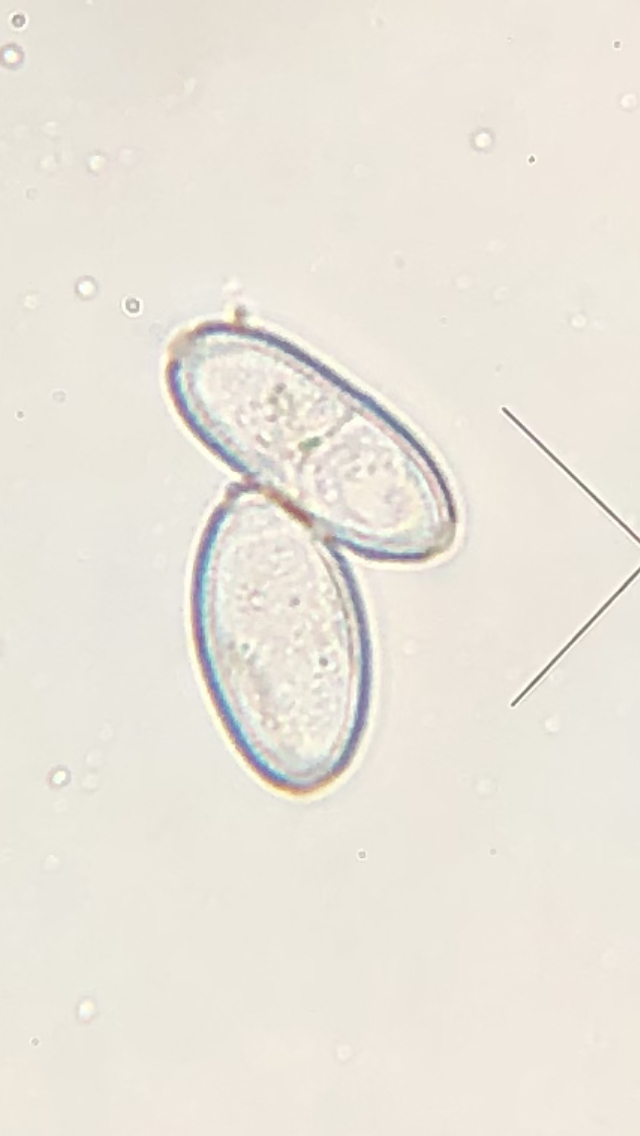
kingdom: Fungi
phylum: Ascomycota
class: Leotiomycetes
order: Helotiales
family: Erysiphaceae
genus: Blumeria
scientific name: Blumeria graminis
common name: græs-meldug
